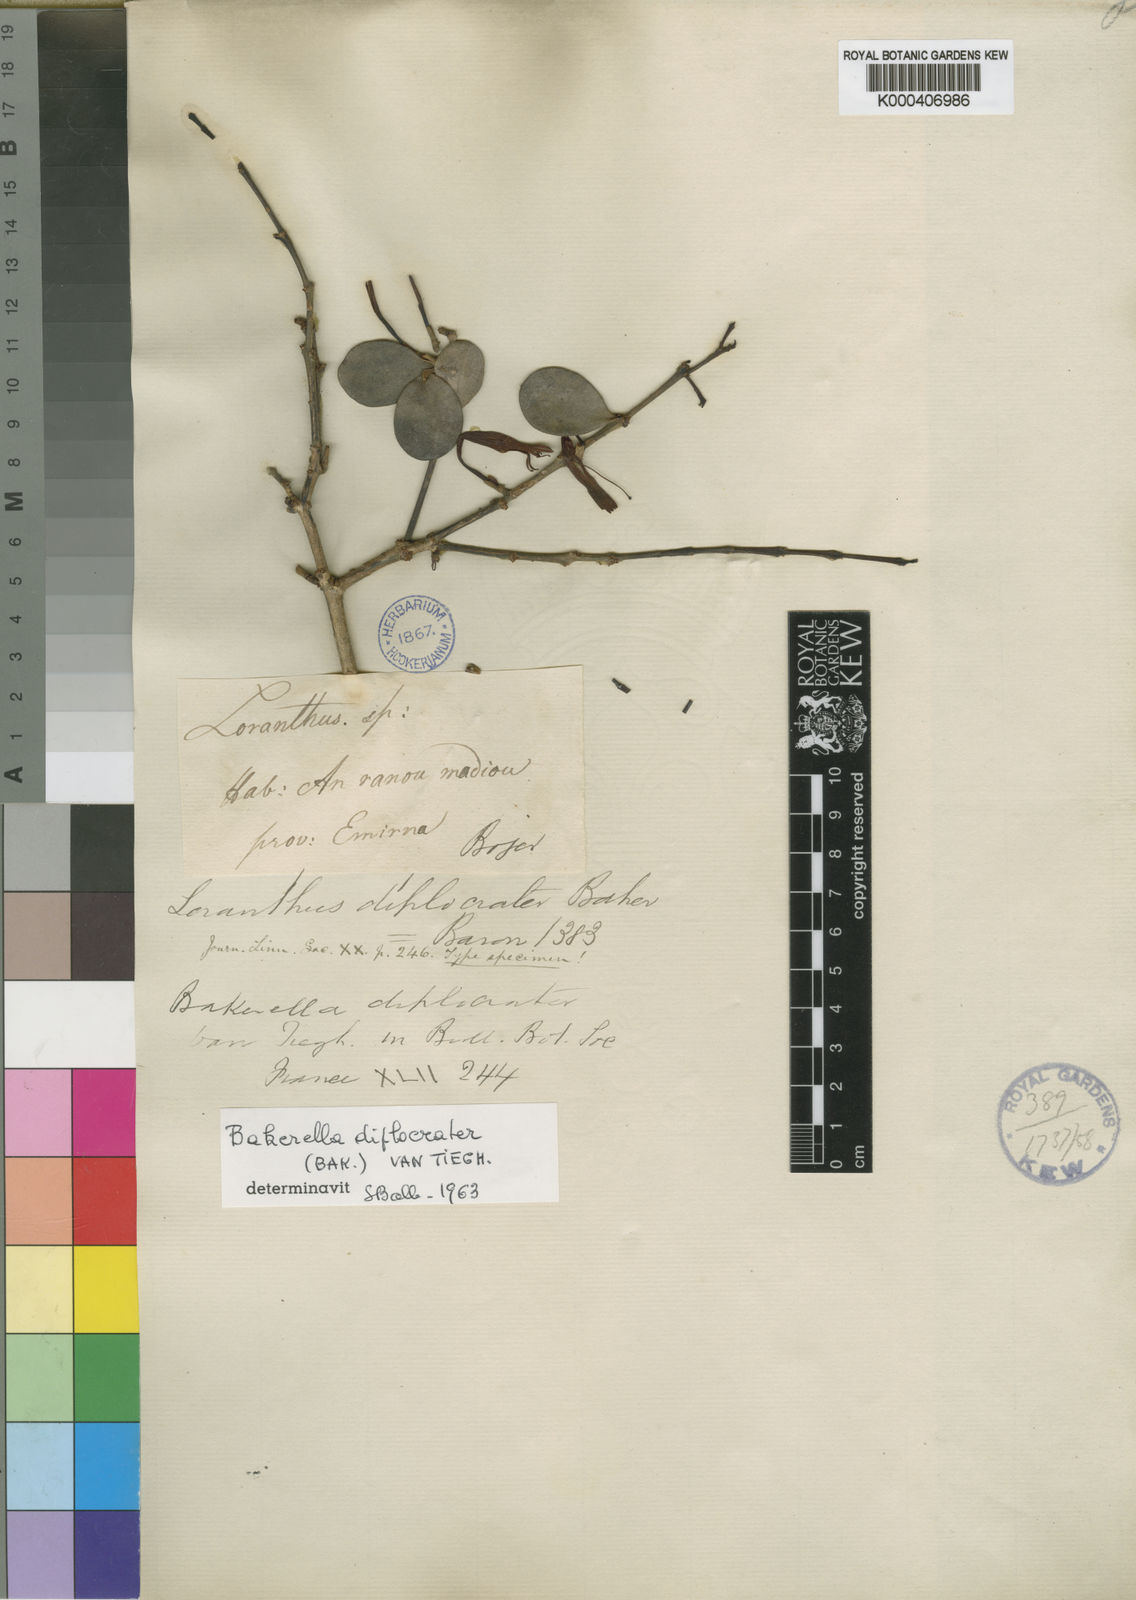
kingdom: Plantae
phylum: Tracheophyta
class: Magnoliopsida
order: Santalales
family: Loranthaceae
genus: Bakerella
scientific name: Bakerella diplocrater
